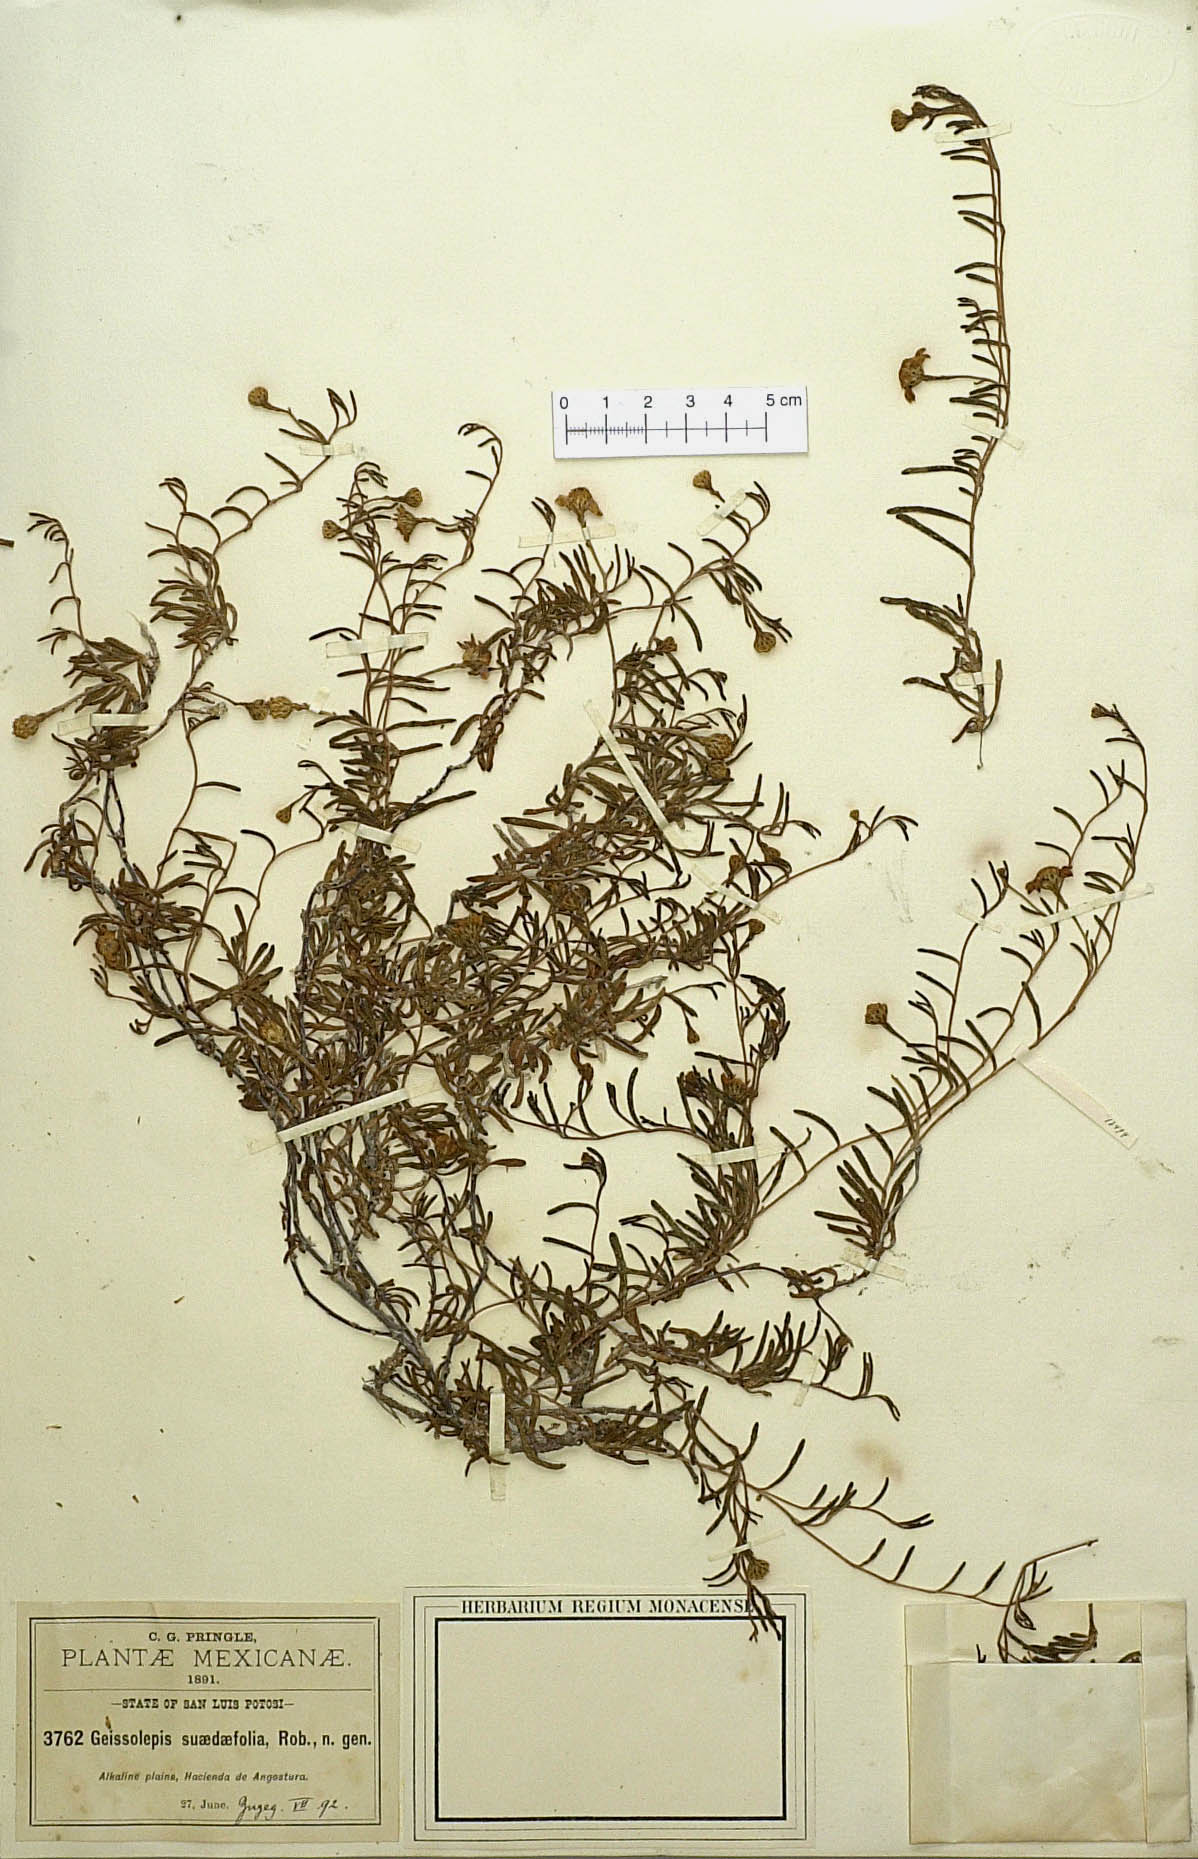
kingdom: Plantae
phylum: Tracheophyta
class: Magnoliopsida
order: Asterales
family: Asteraceae
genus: Geissolepis
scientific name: Geissolepis suaedaefolia
